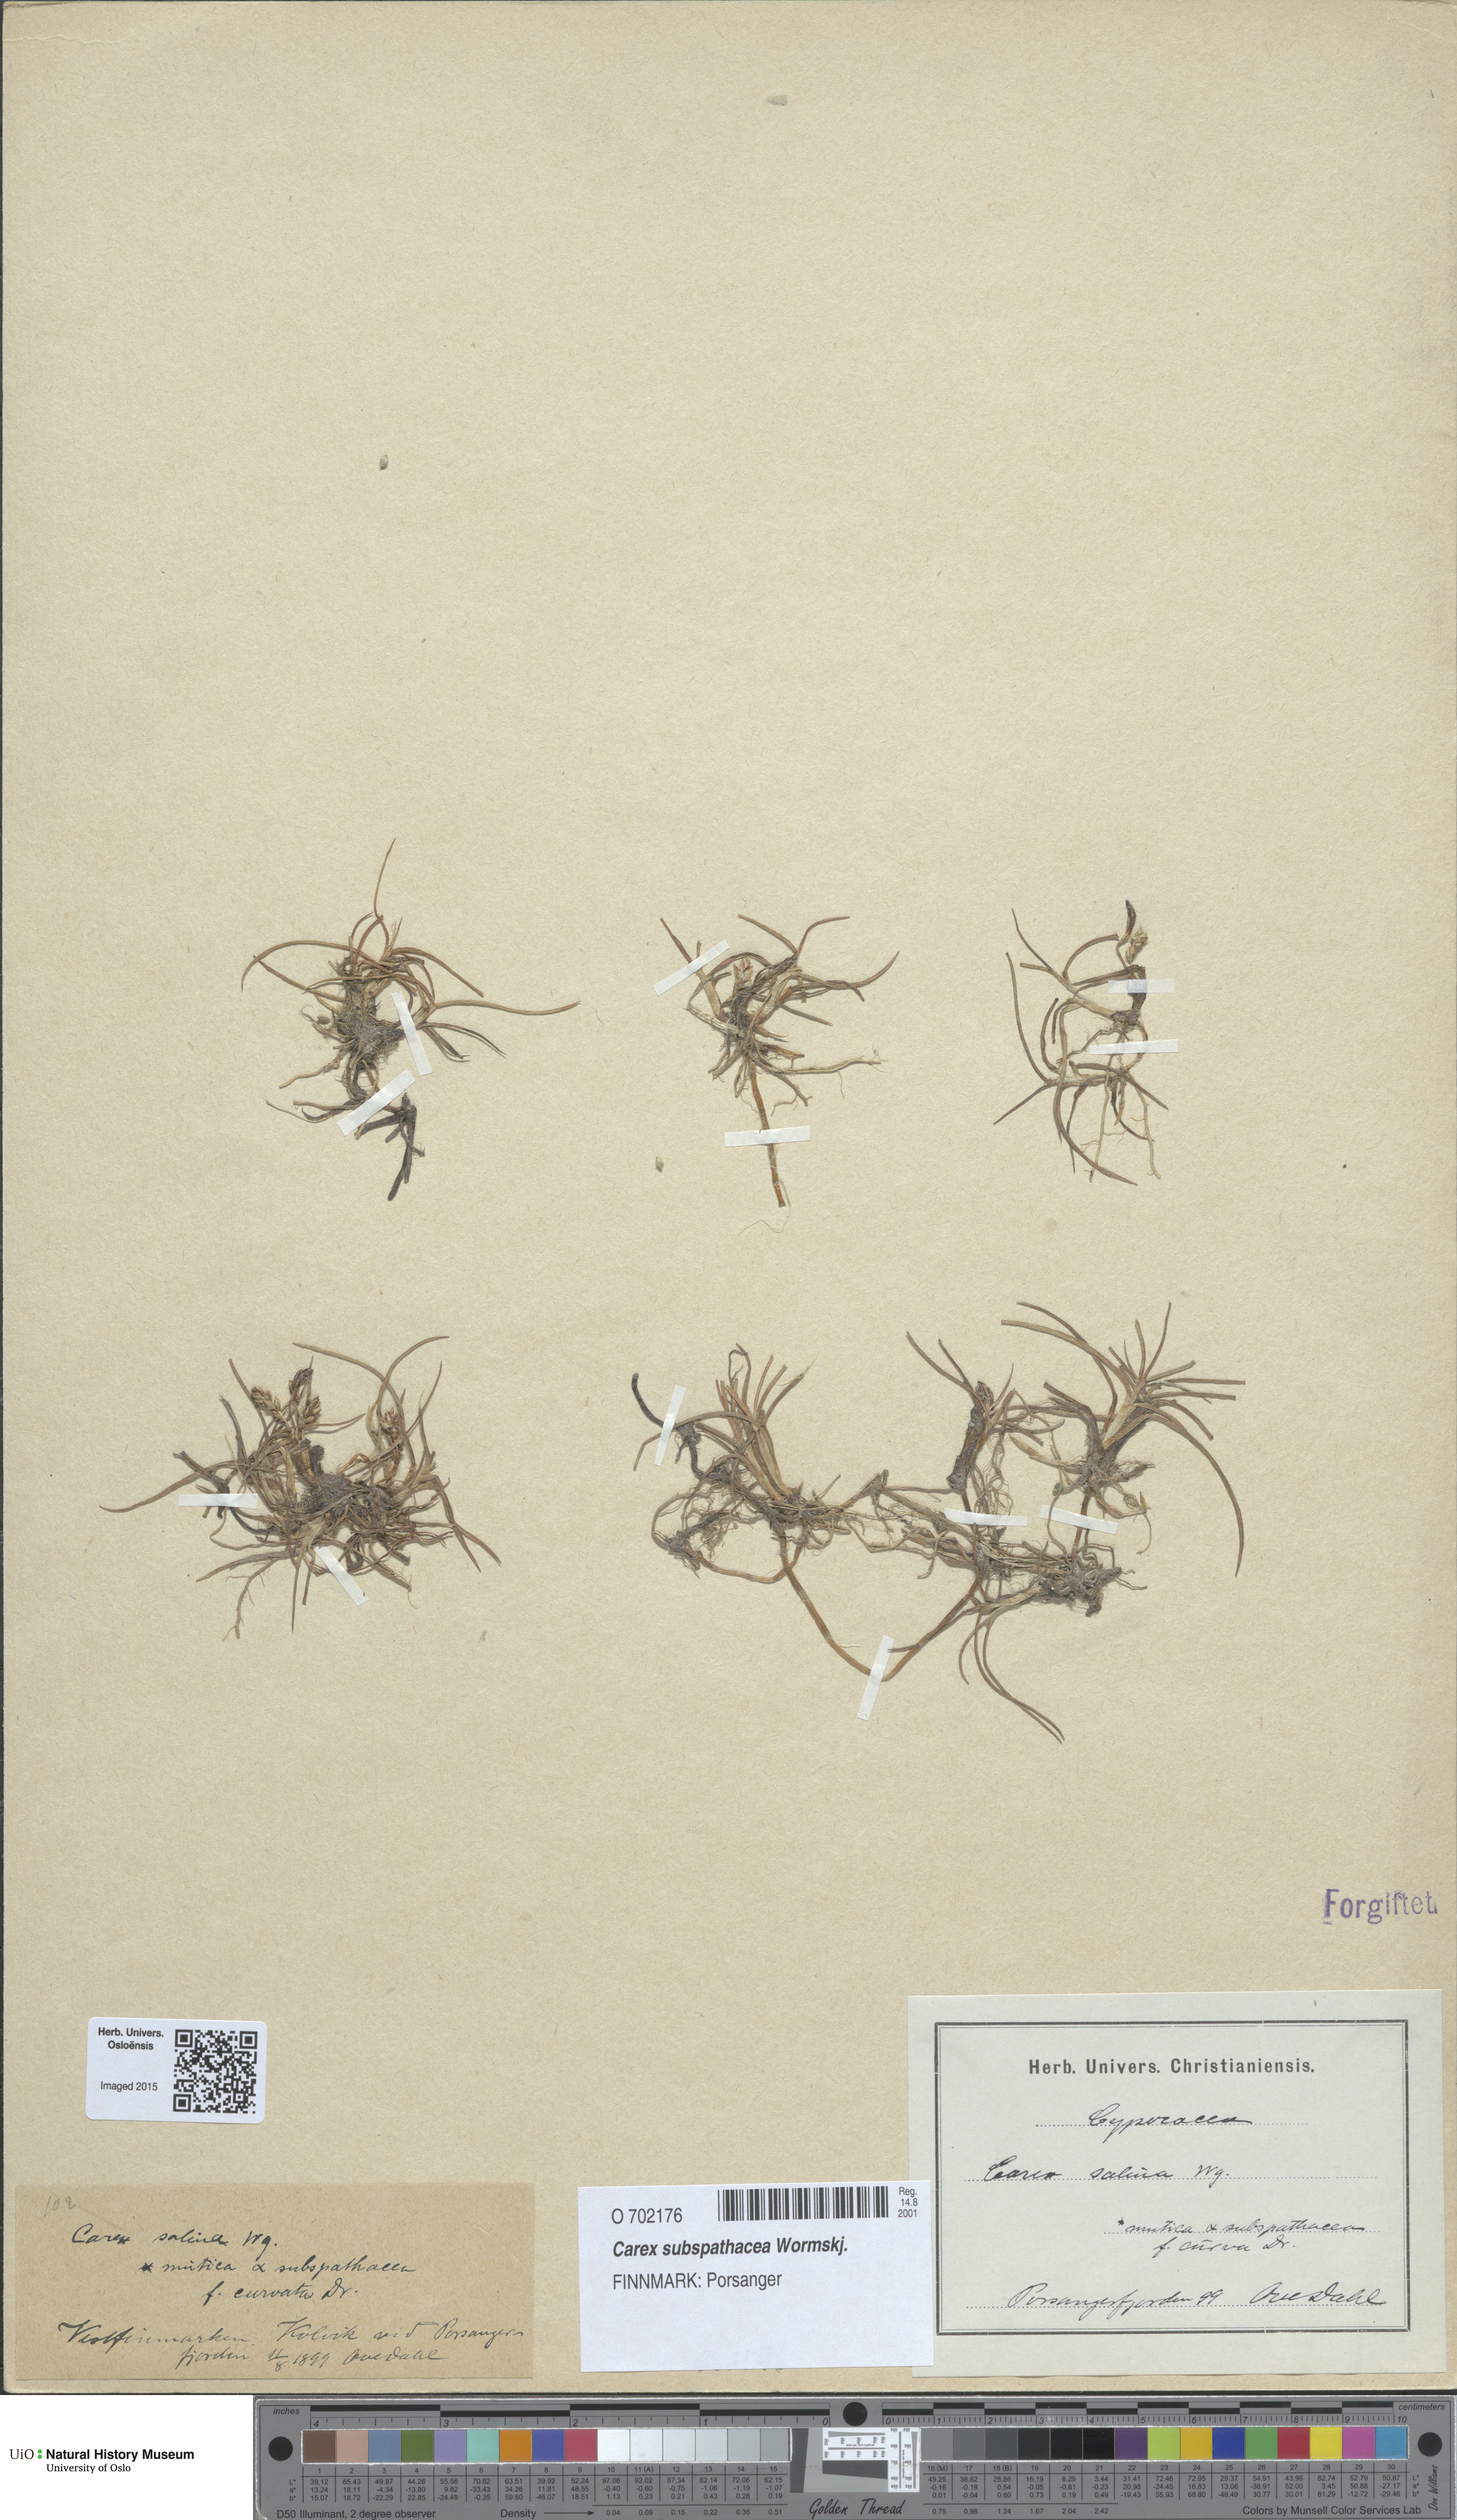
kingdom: Plantae
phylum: Tracheophyta
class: Liliopsida
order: Poales
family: Cyperaceae
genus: Carex
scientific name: Carex subspathacea
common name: Hoppner's sedge
